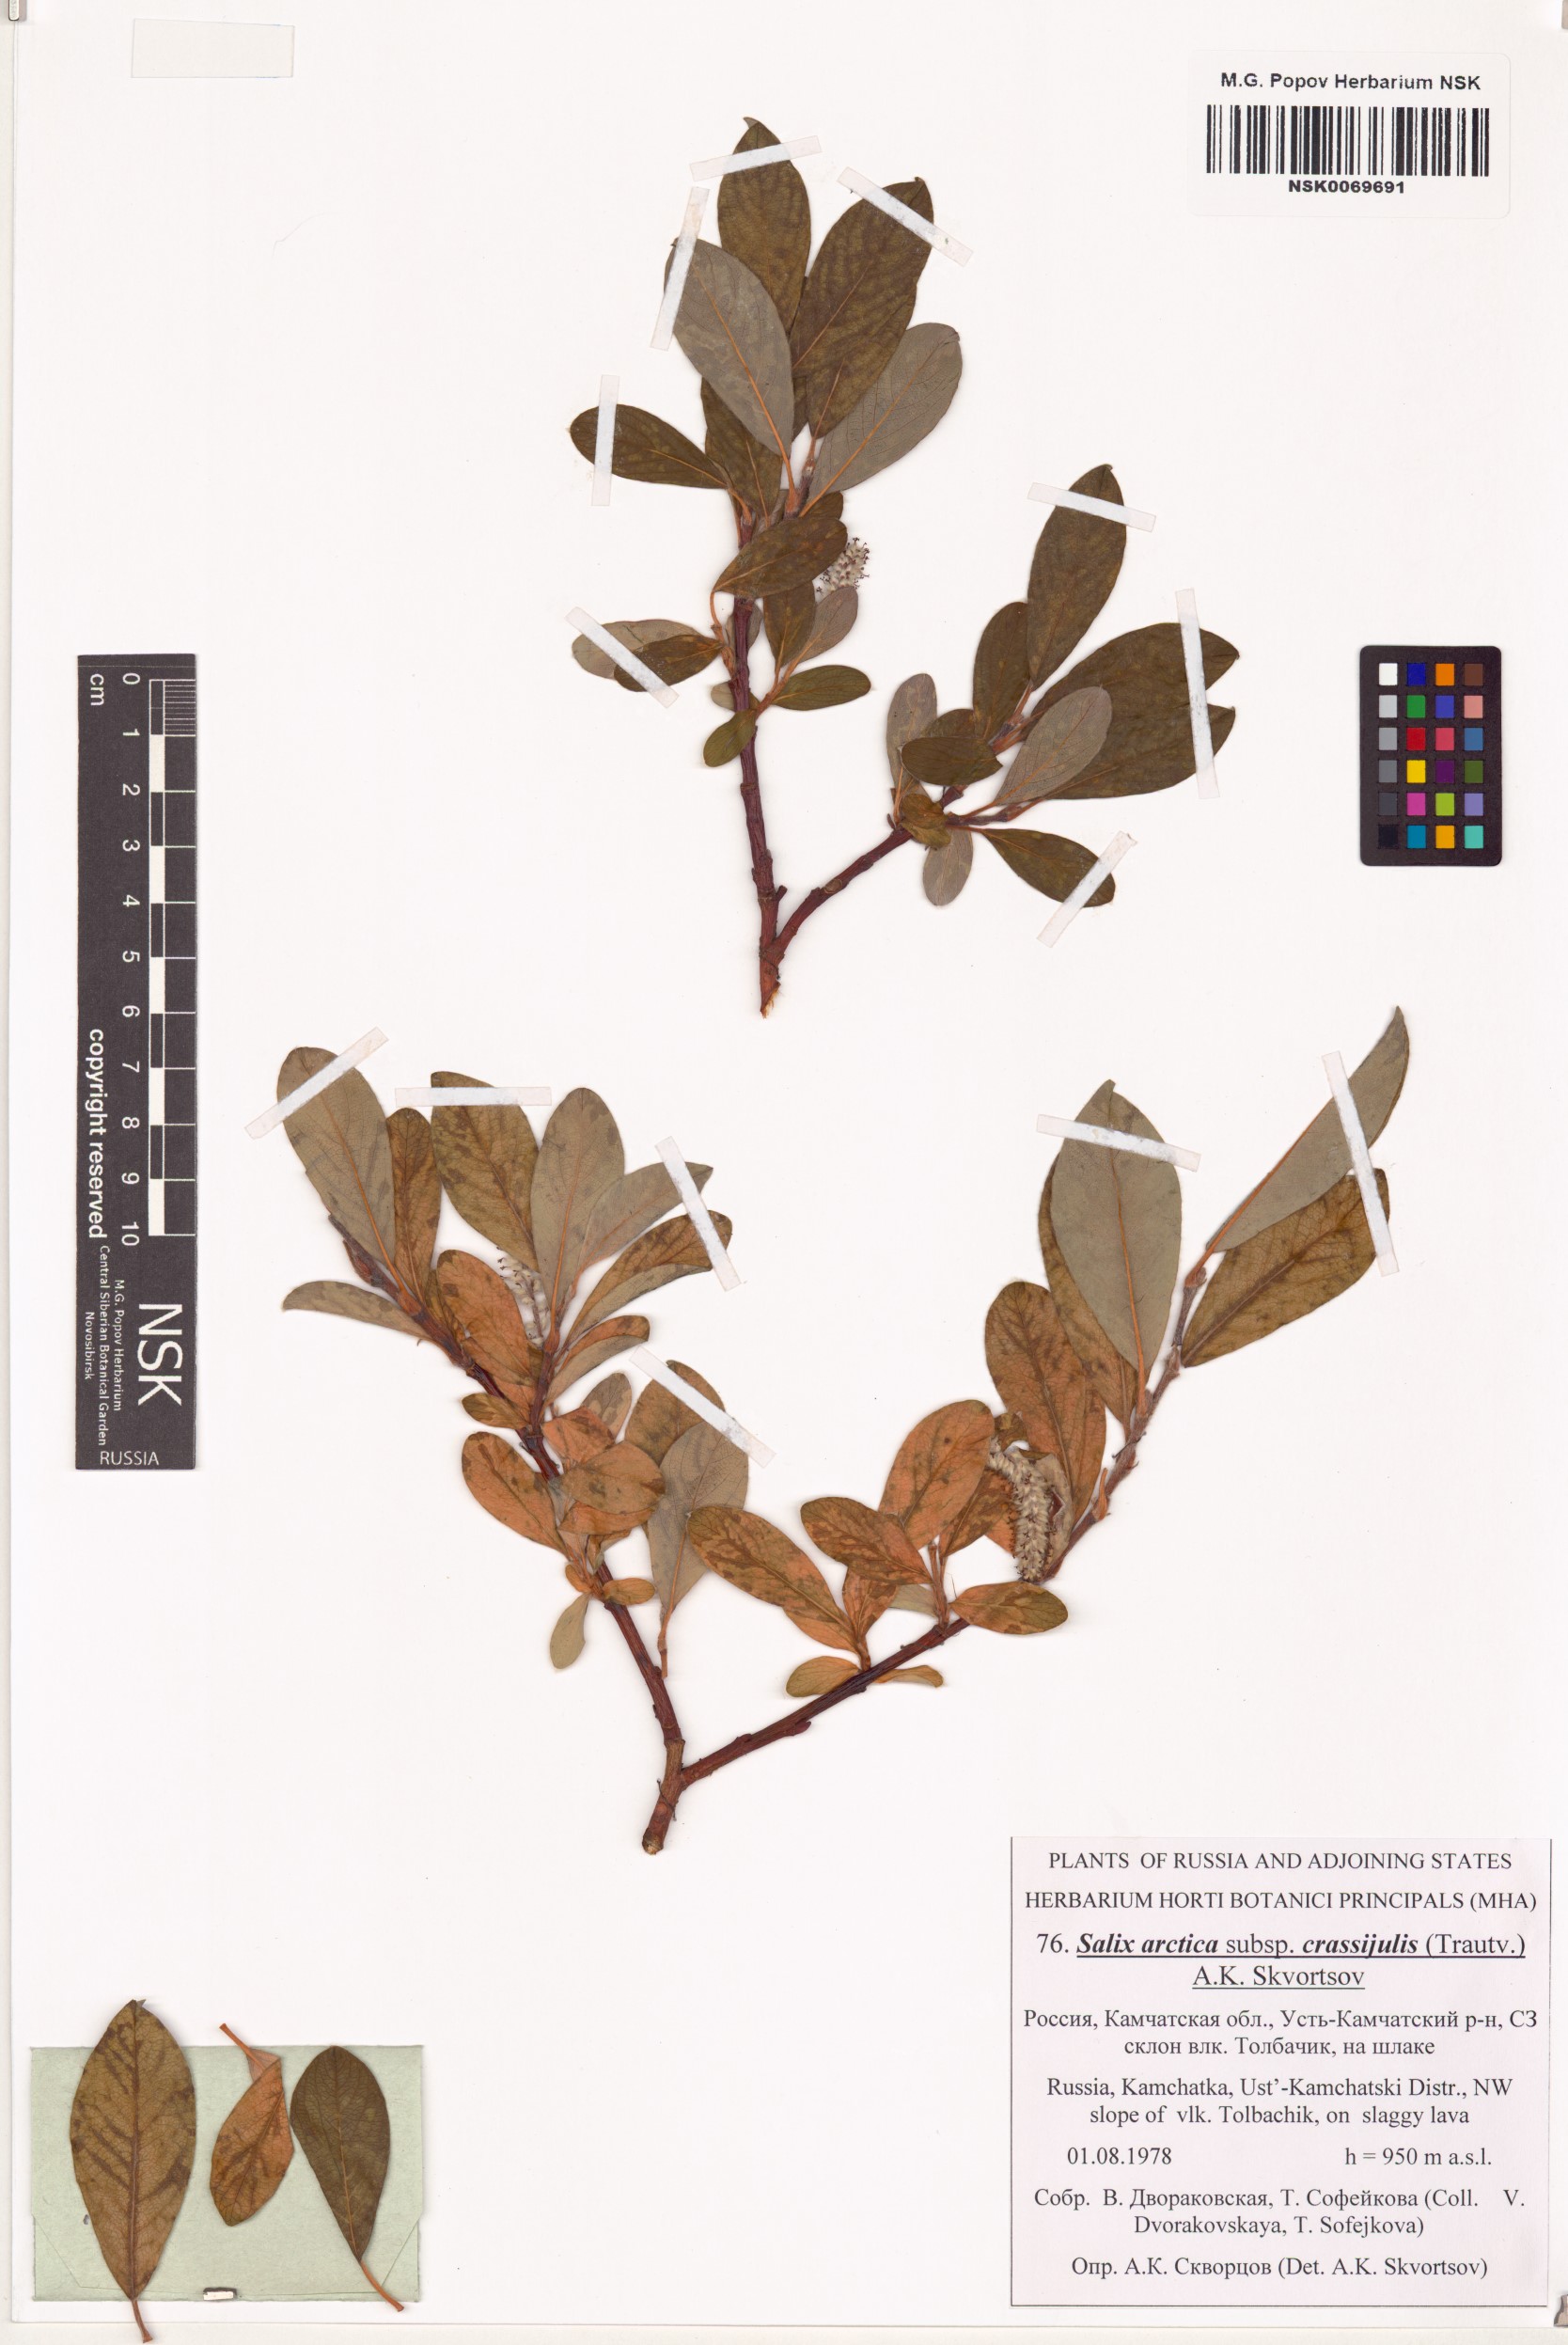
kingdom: Plantae
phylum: Tracheophyta
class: Magnoliopsida
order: Malpighiales
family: Salicaceae
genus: Salix
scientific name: Salix arctica
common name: Arctic willow
